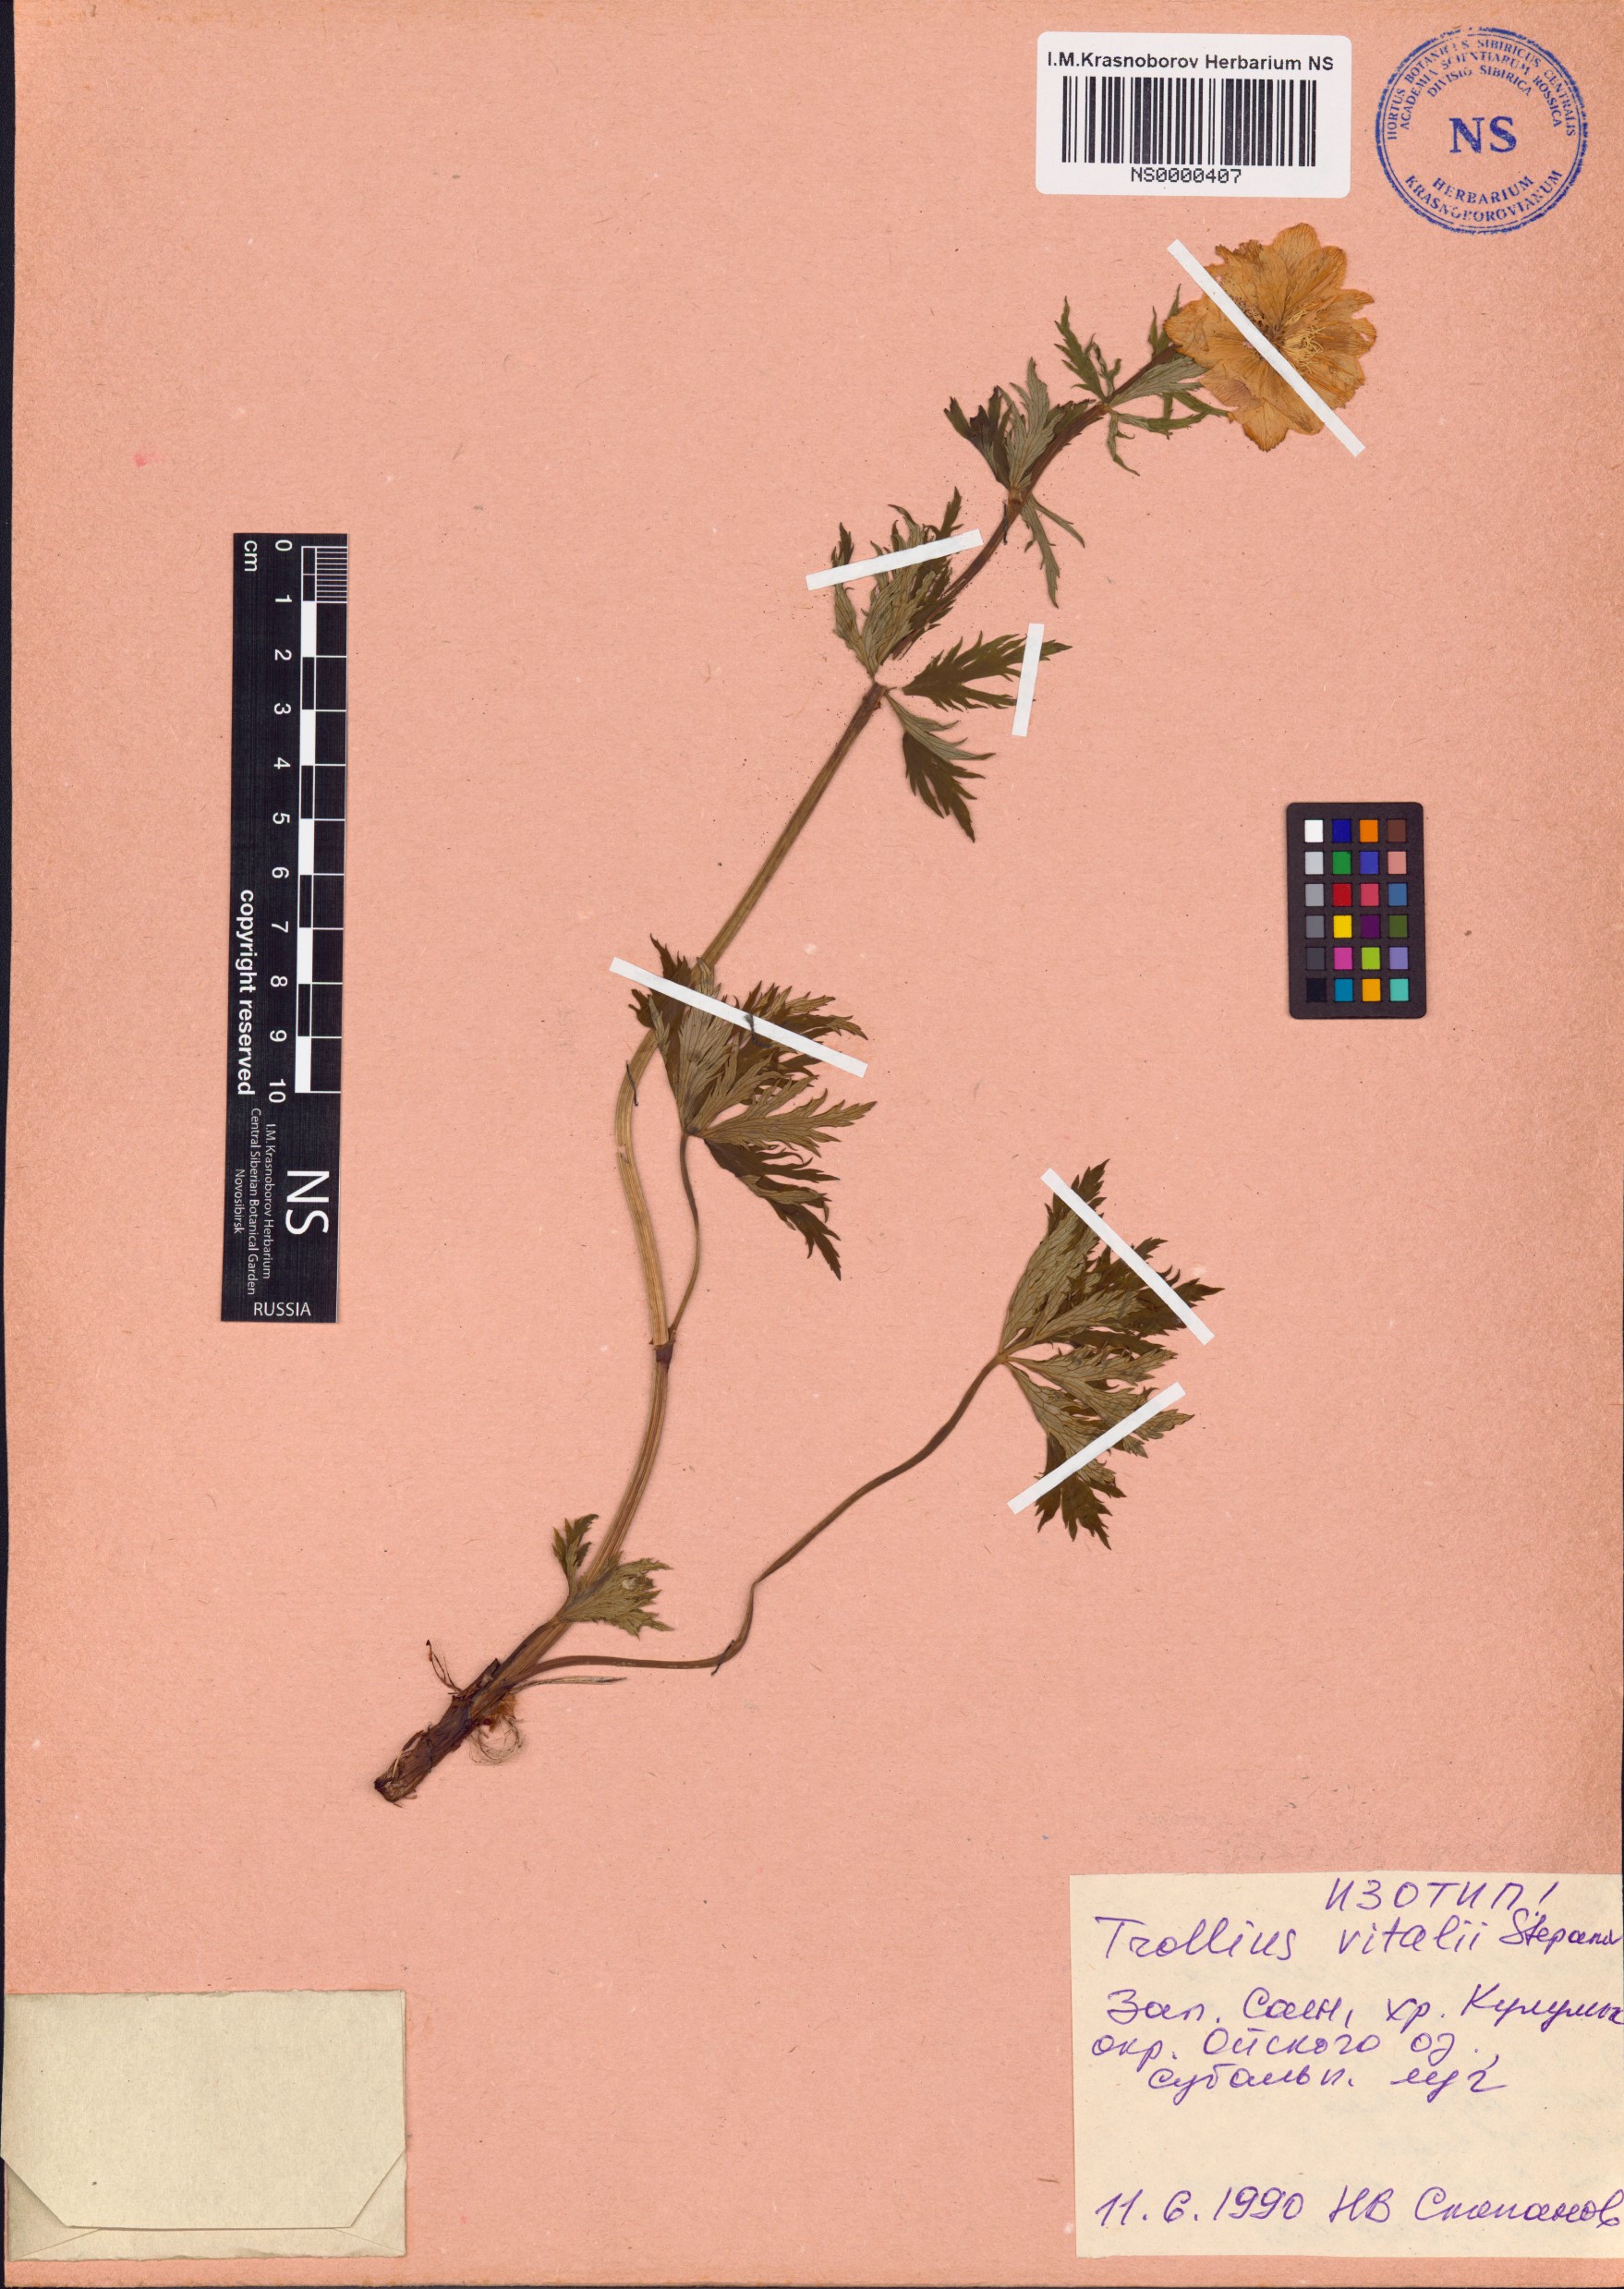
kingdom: Plantae
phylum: Tracheophyta
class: Magnoliopsida
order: Ranunculales
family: Ranunculaceae
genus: Trollius
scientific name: Trollius chinensis
